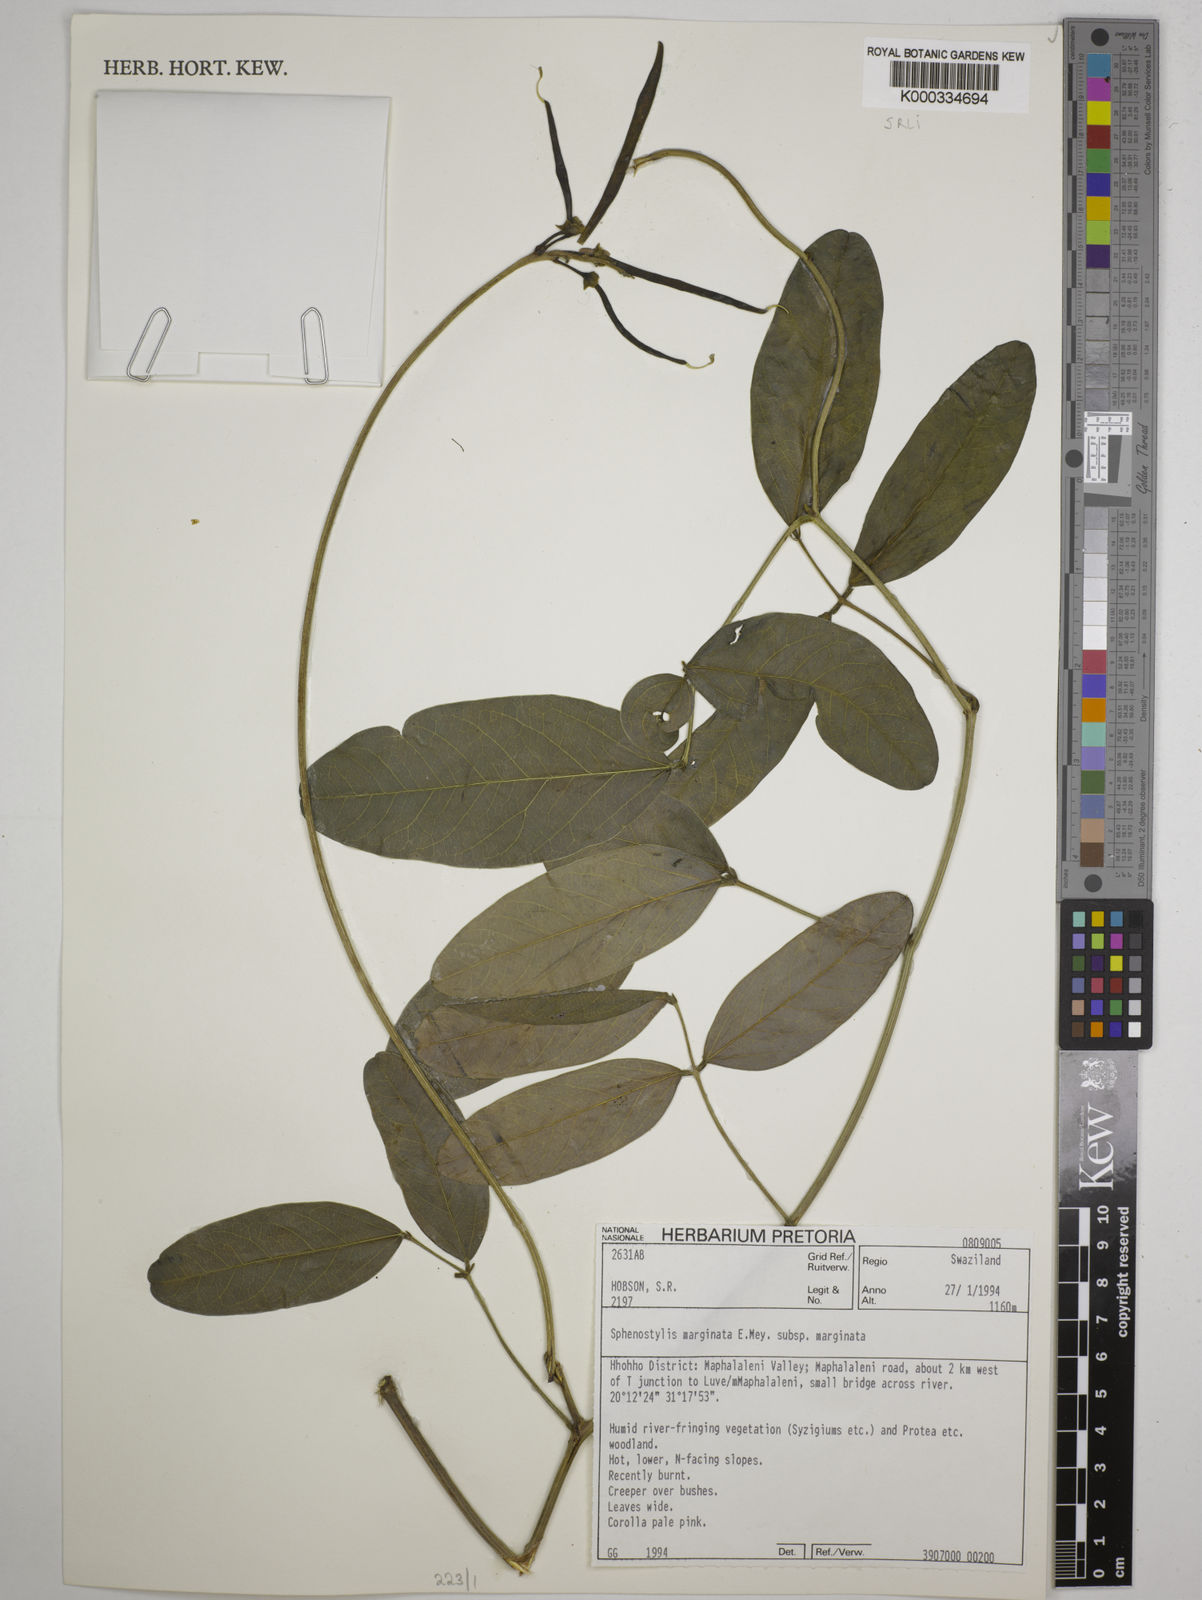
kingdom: Plantae
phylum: Tracheophyta
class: Magnoliopsida
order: Fabales
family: Fabaceae
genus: Sphenostylis
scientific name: Sphenostylis
